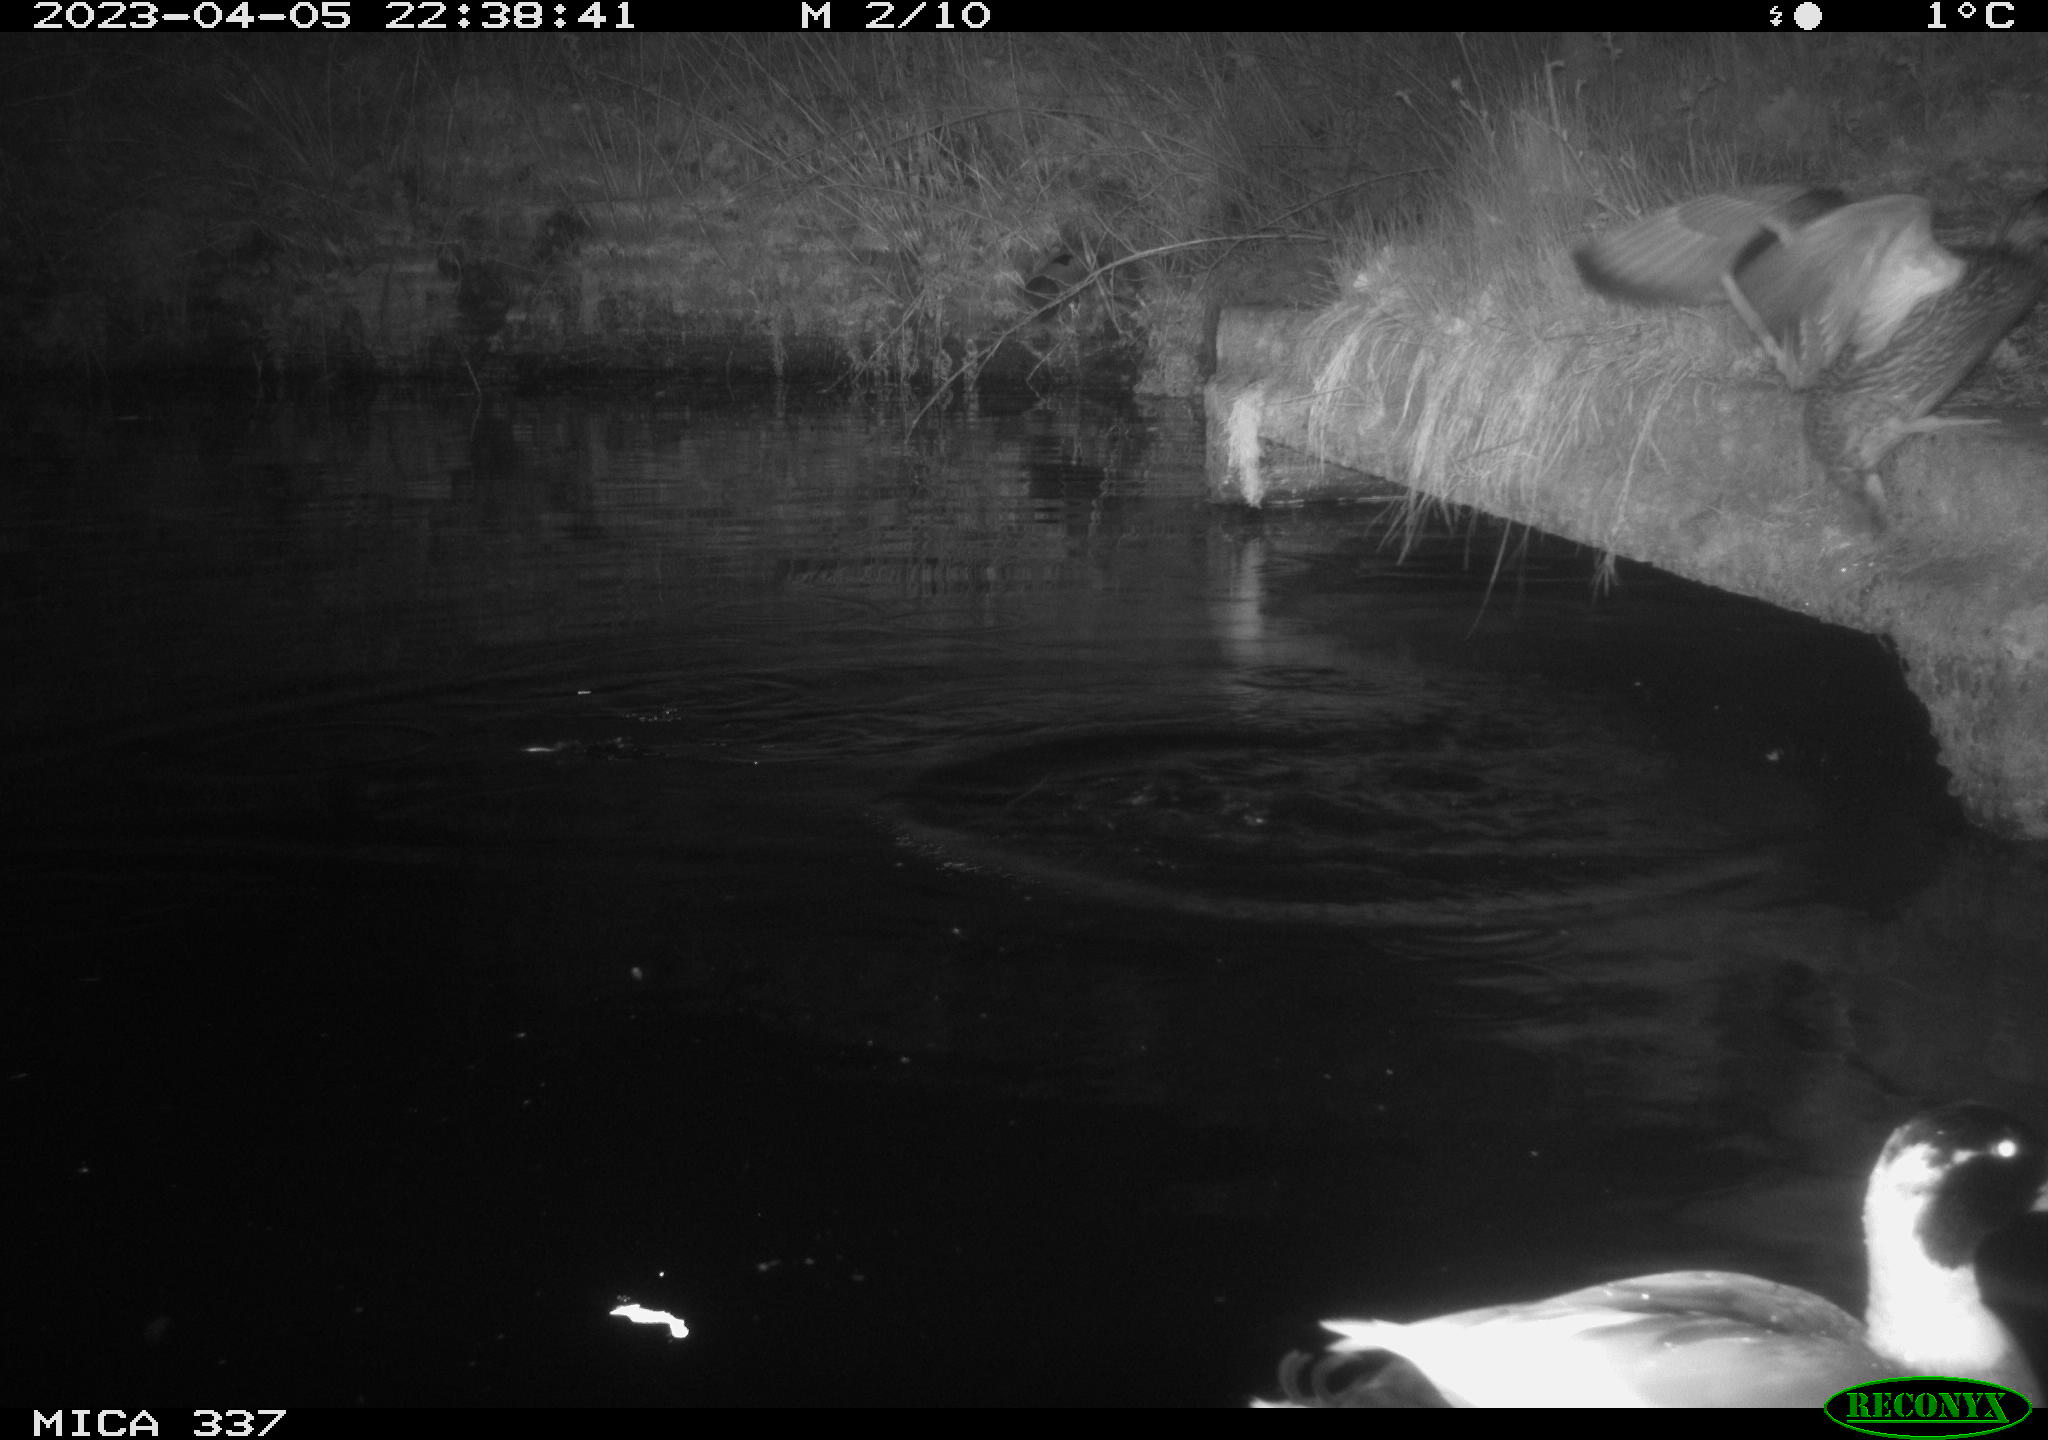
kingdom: Animalia
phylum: Chordata
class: Aves
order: Anseriformes
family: Anatidae
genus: Anas
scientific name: Anas platyrhynchos
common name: Mallard
